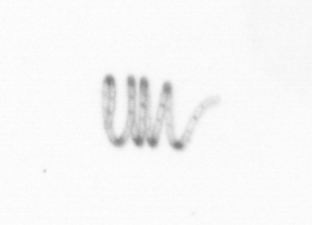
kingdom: Chromista
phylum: Ochrophyta
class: Bacillariophyceae
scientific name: Bacillariophyceae
